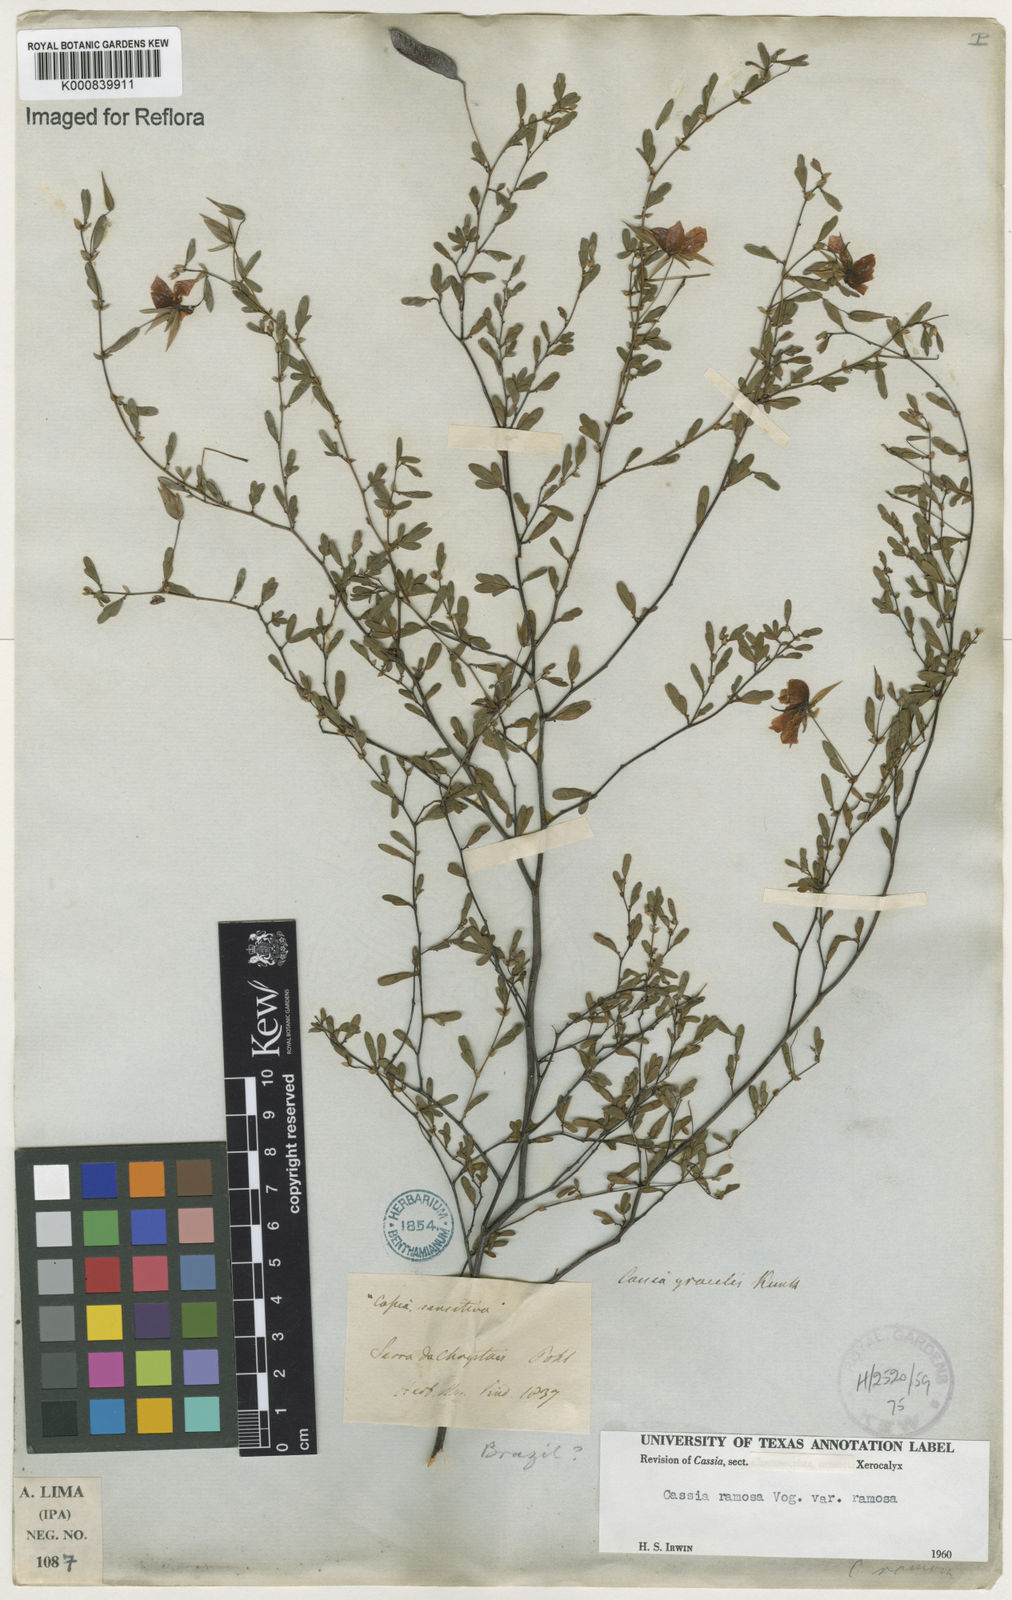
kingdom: Plantae
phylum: Tracheophyta
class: Magnoliopsida
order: Fabales
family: Fabaceae
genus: Chamaecrista
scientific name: Chamaecrista ramosa
